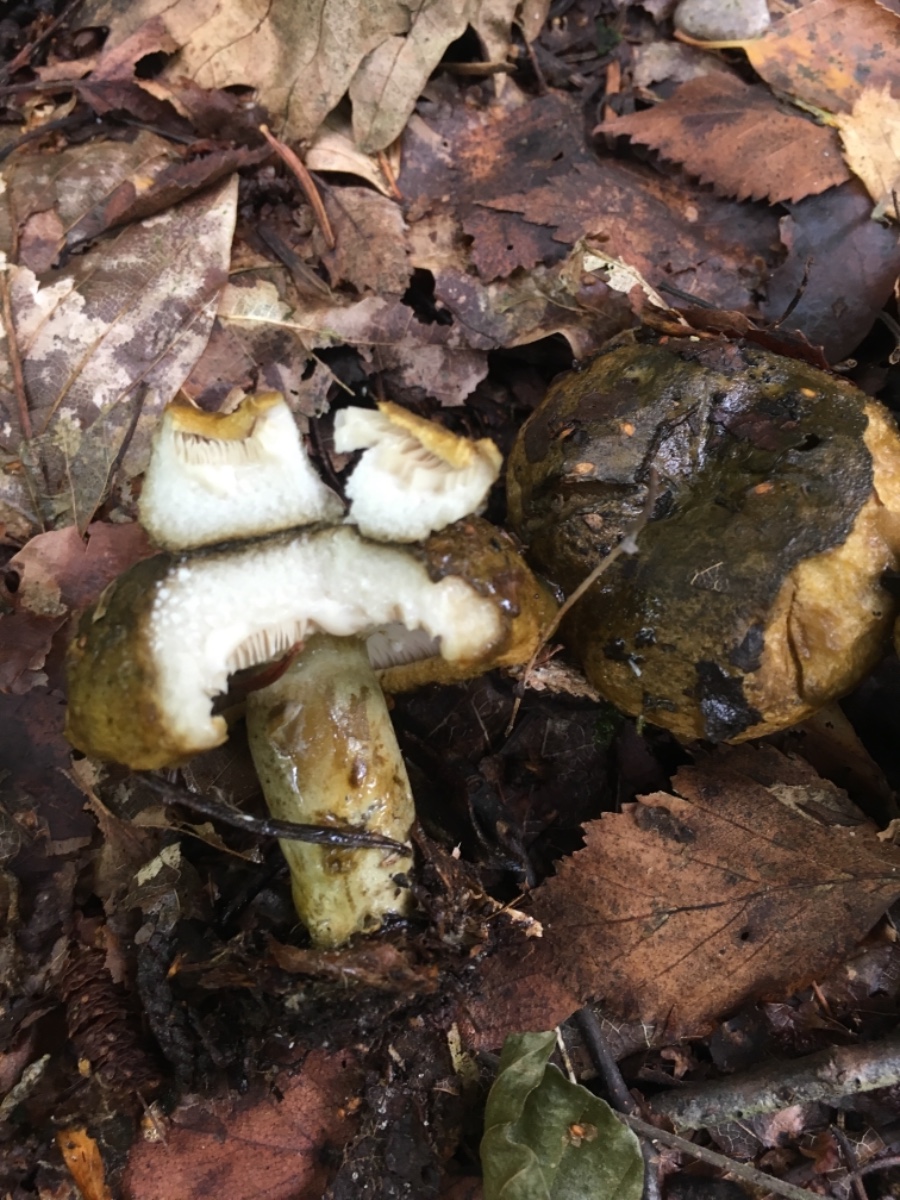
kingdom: Fungi
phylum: Basidiomycota
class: Agaricomycetes
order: Russulales
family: Russulaceae
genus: Lactarius
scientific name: Lactarius necator
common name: manddraber-mælkehat
